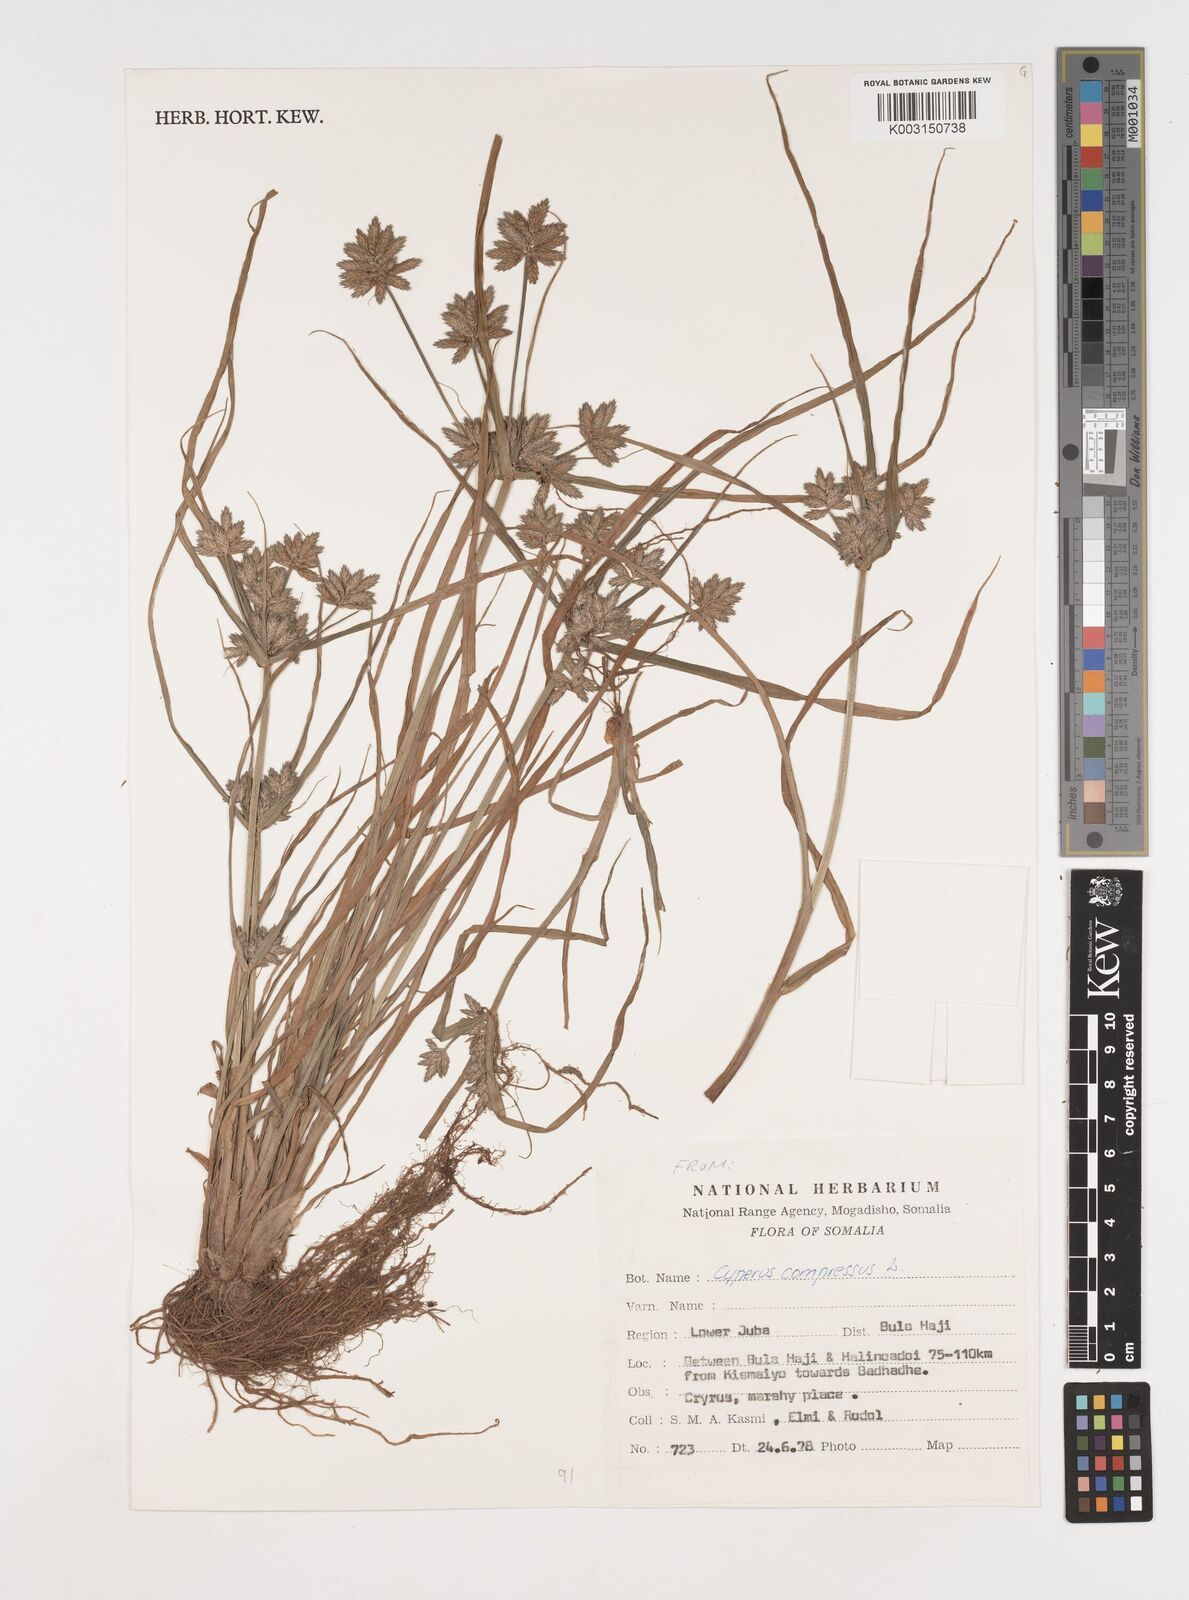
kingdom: Plantae
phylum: Tracheophyta
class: Liliopsida
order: Poales
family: Cyperaceae
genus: Cyperus
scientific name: Cyperus compressus
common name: Poorland flatsedge
